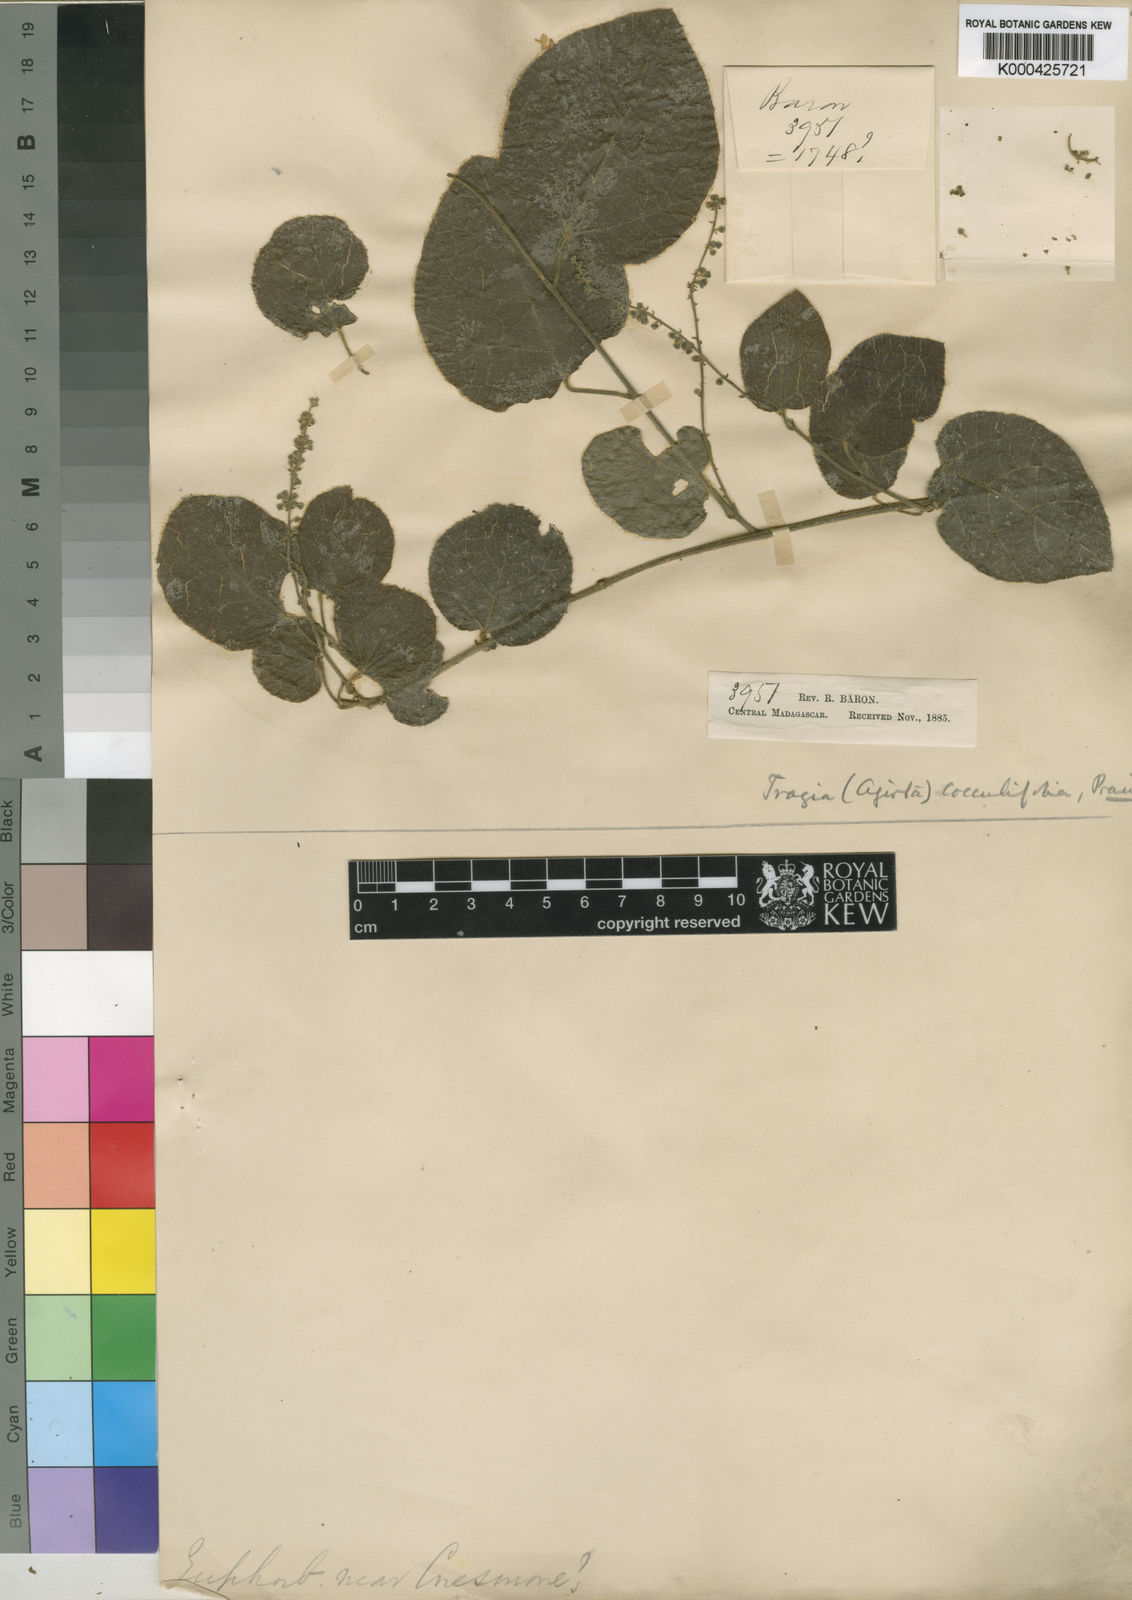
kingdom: Plantae
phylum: Tracheophyta
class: Magnoliopsida
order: Malpighiales
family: Euphorbiaceae
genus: Tragia
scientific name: Tragia cocculifolia
